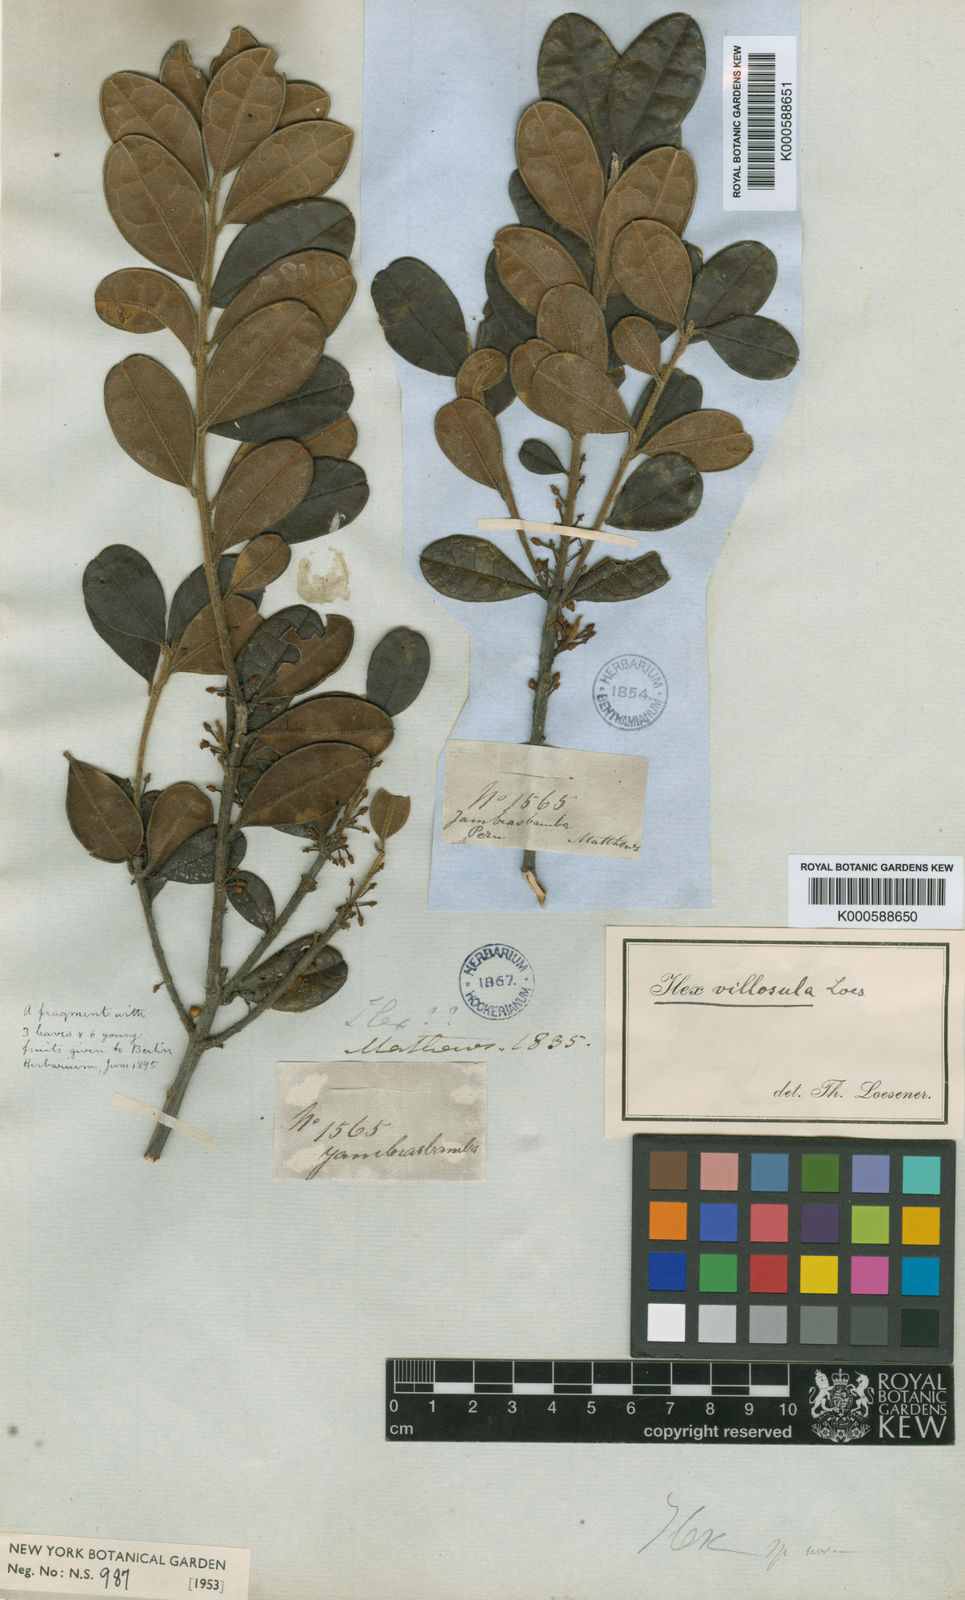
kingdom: Plantae
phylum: Tracheophyta
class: Magnoliopsida
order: Aquifoliales
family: Aquifoliaceae
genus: Ilex
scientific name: Ilex villosula
